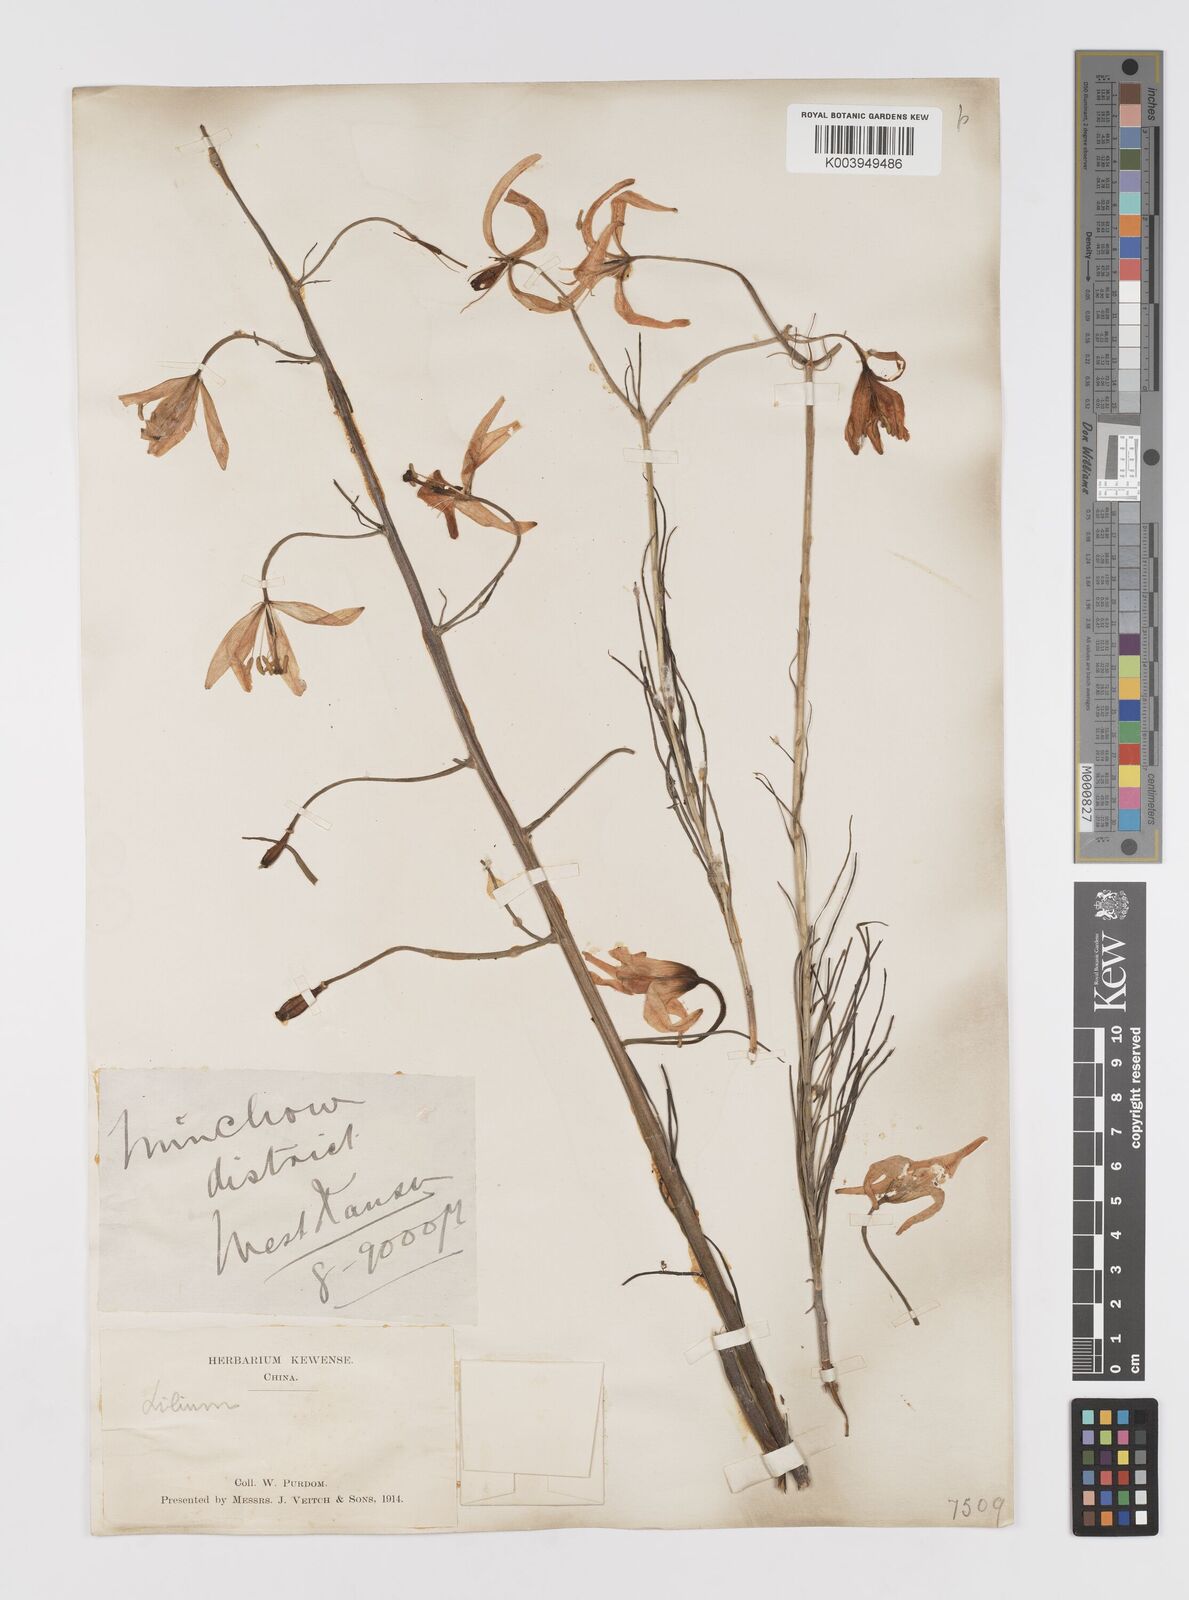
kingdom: Plantae
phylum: Tracheophyta
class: Liliopsida
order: Liliales
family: Liliaceae
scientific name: Liliaceae
